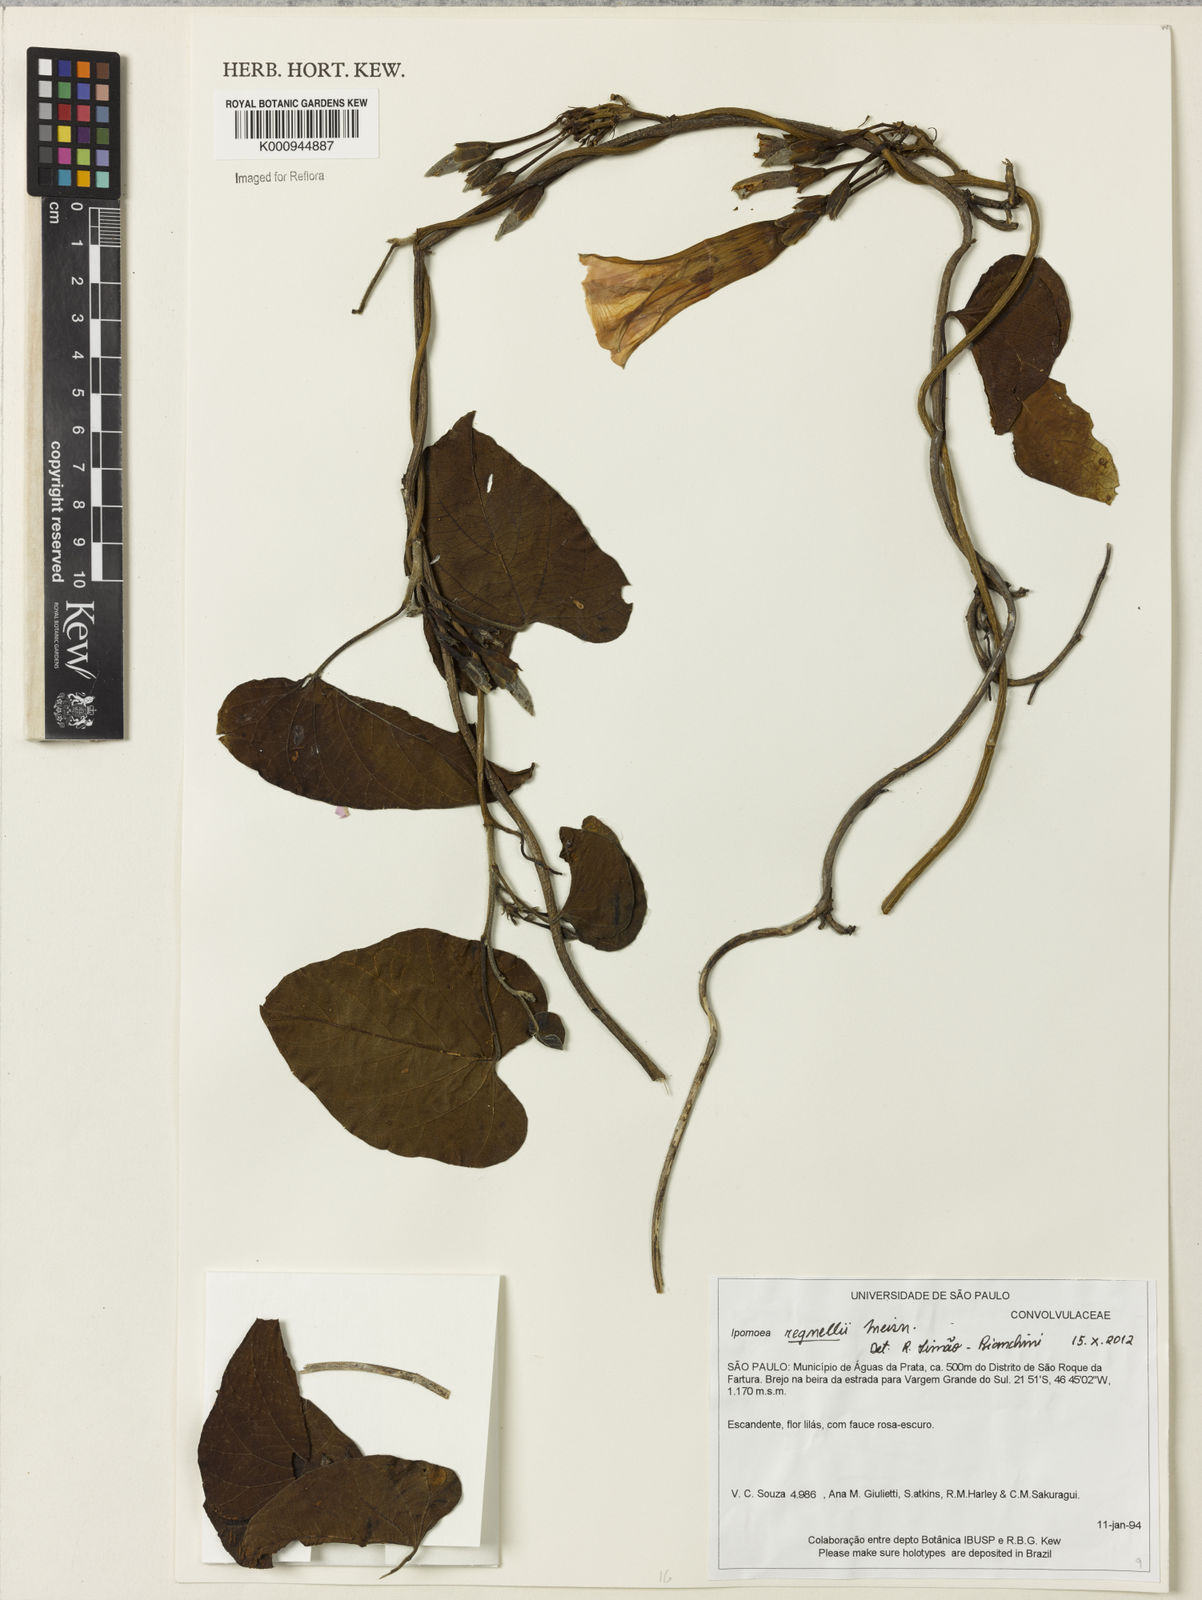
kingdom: Plantae
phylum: Tracheophyta
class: Magnoliopsida
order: Solanales
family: Convolvulaceae
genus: Ipomoea
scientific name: Ipomoea regnellii
